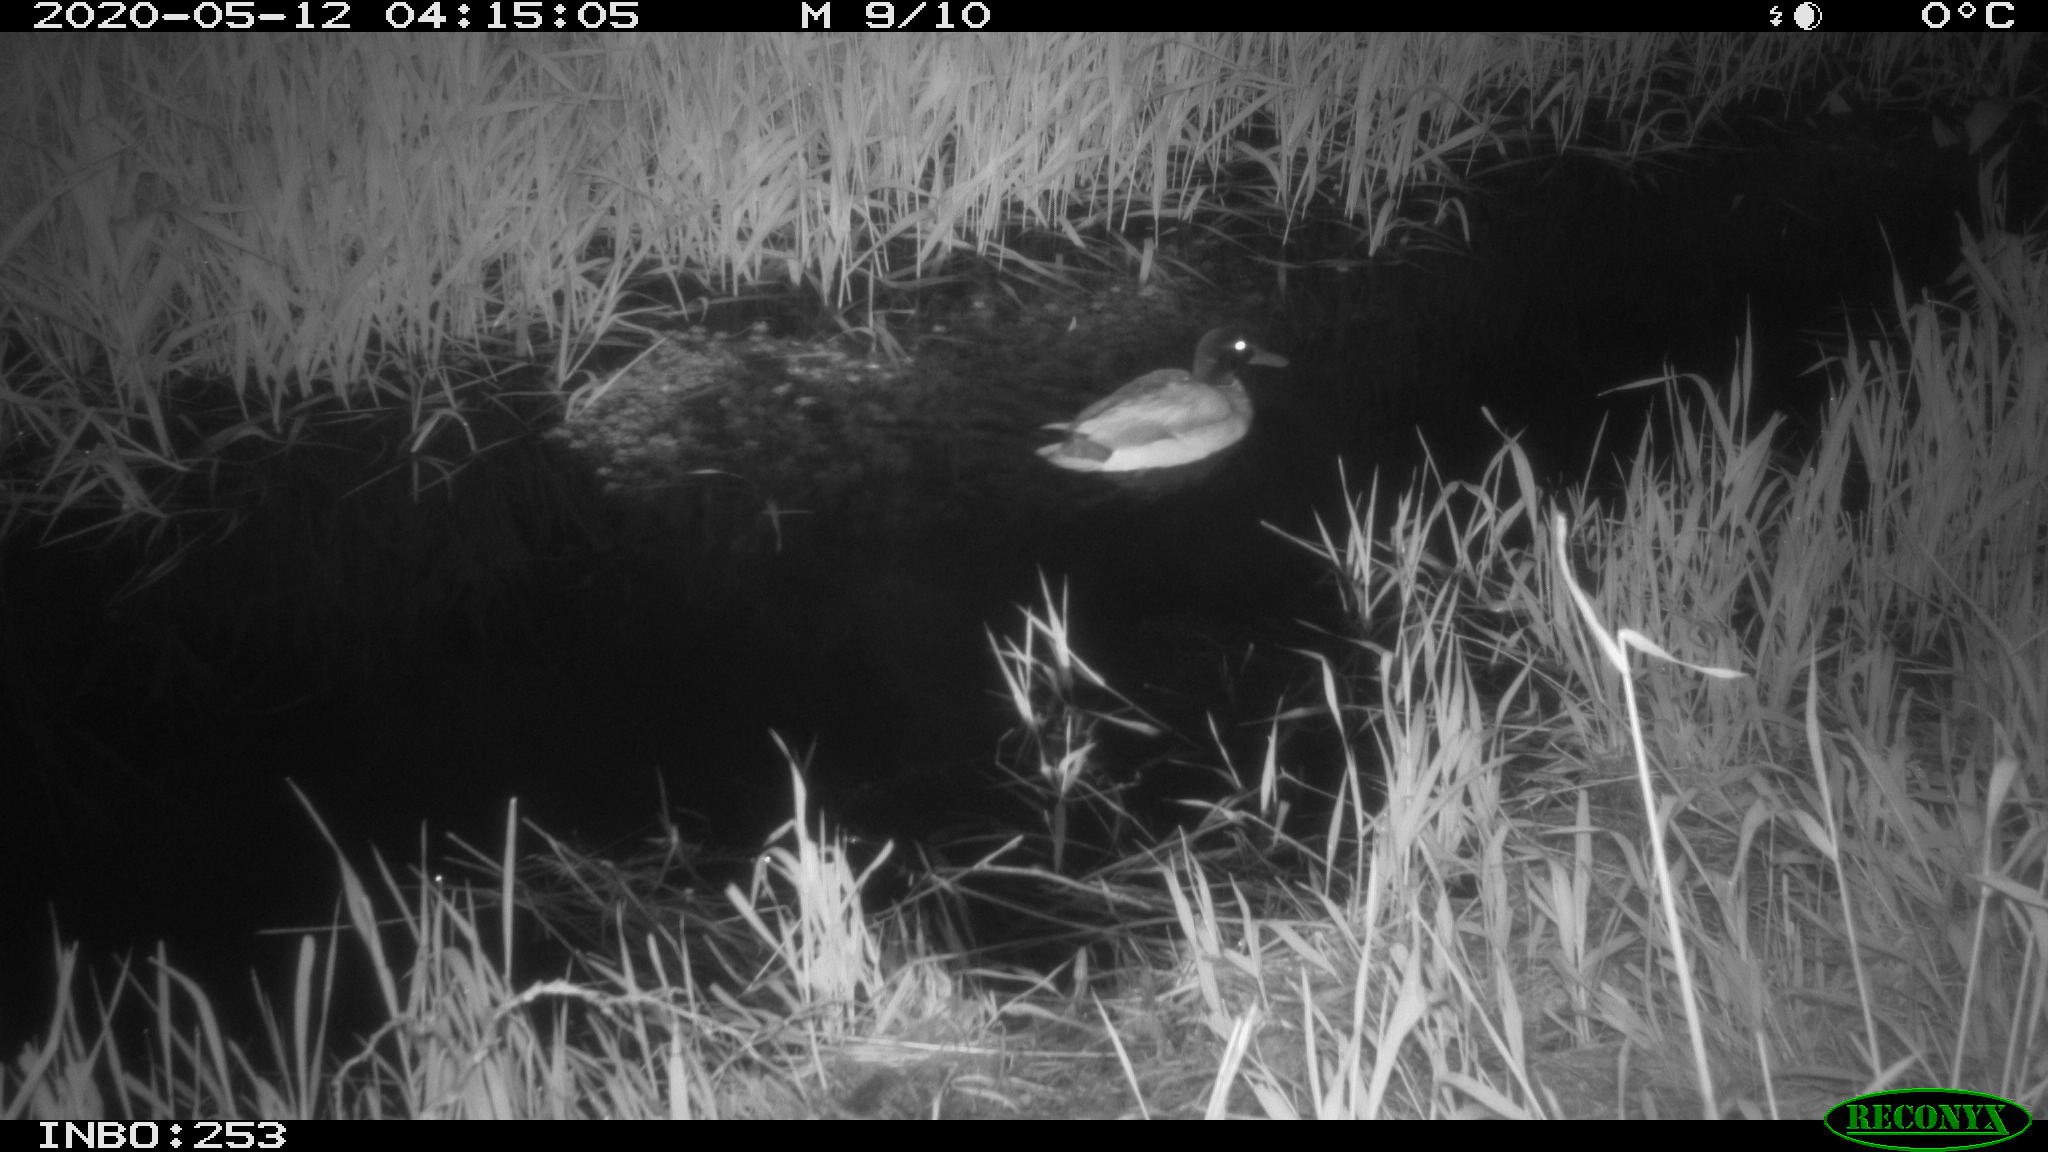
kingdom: Animalia
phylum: Chordata
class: Aves
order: Anseriformes
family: Anatidae
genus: Anas
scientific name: Anas platyrhynchos
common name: Mallard
